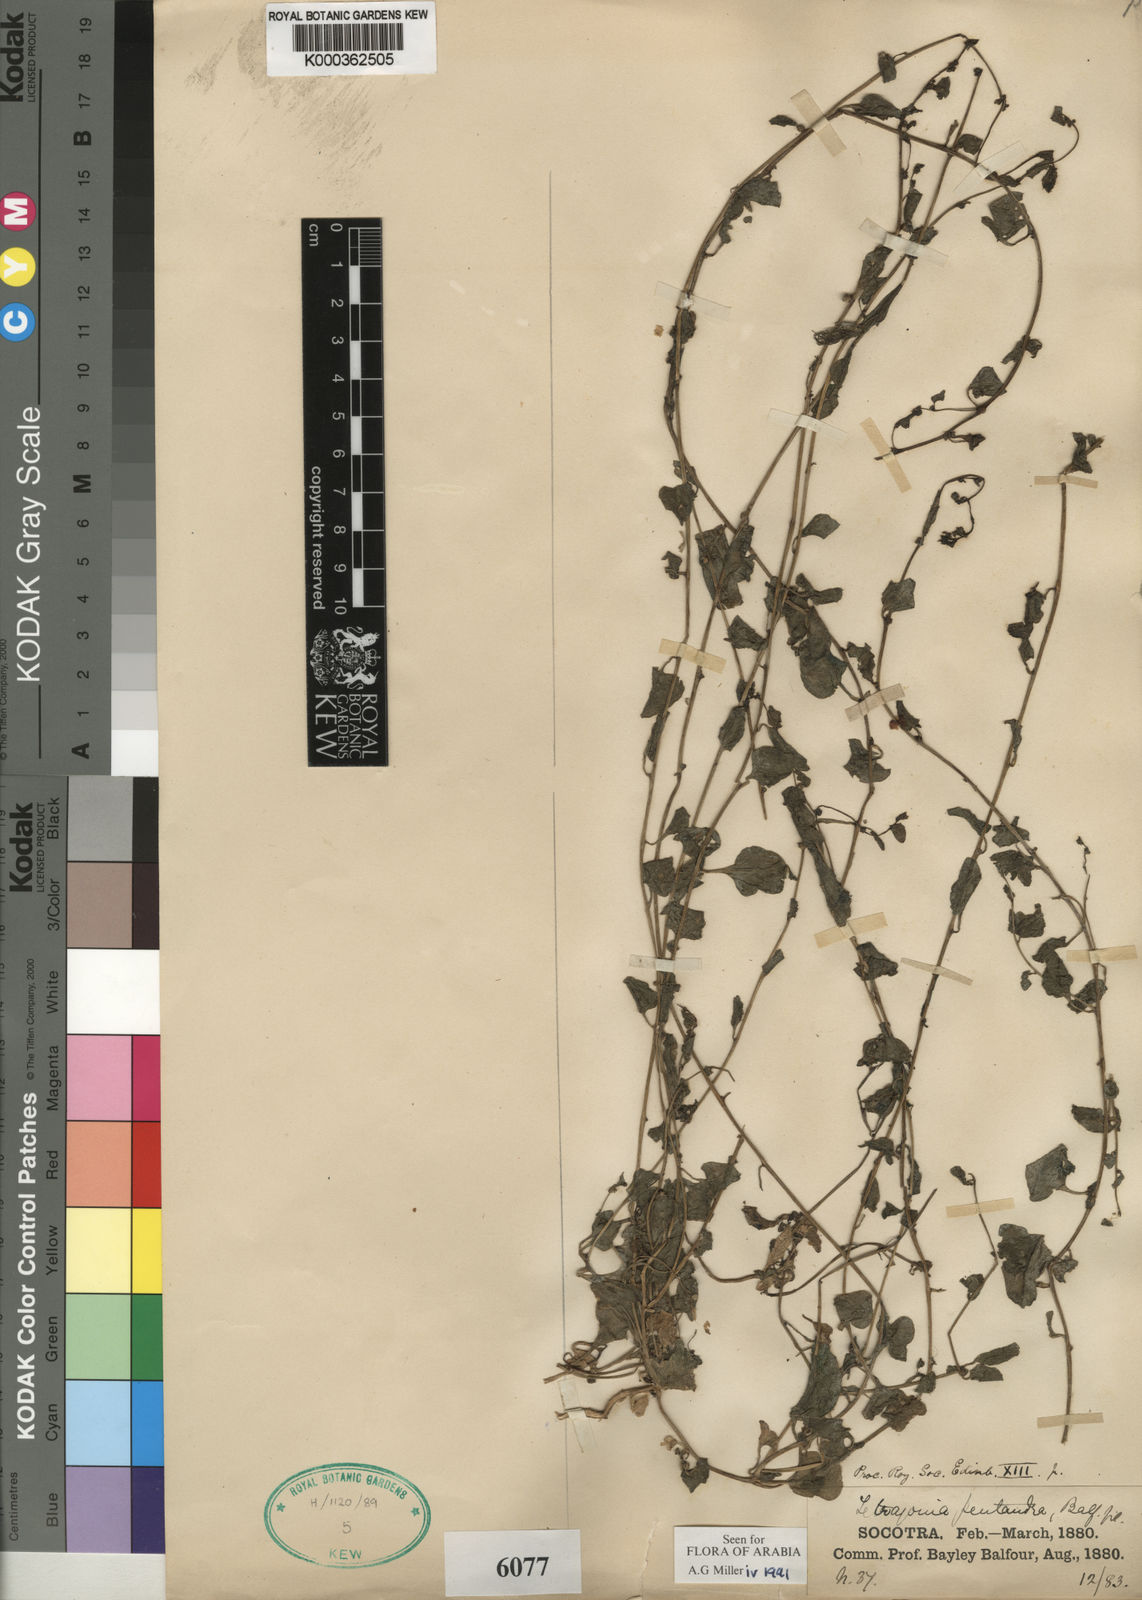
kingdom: Plantae
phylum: Tracheophyta
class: Magnoliopsida
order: Caryophyllales
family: Amaranthaceae
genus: Patellifolia
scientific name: Patellifolia procumbens
